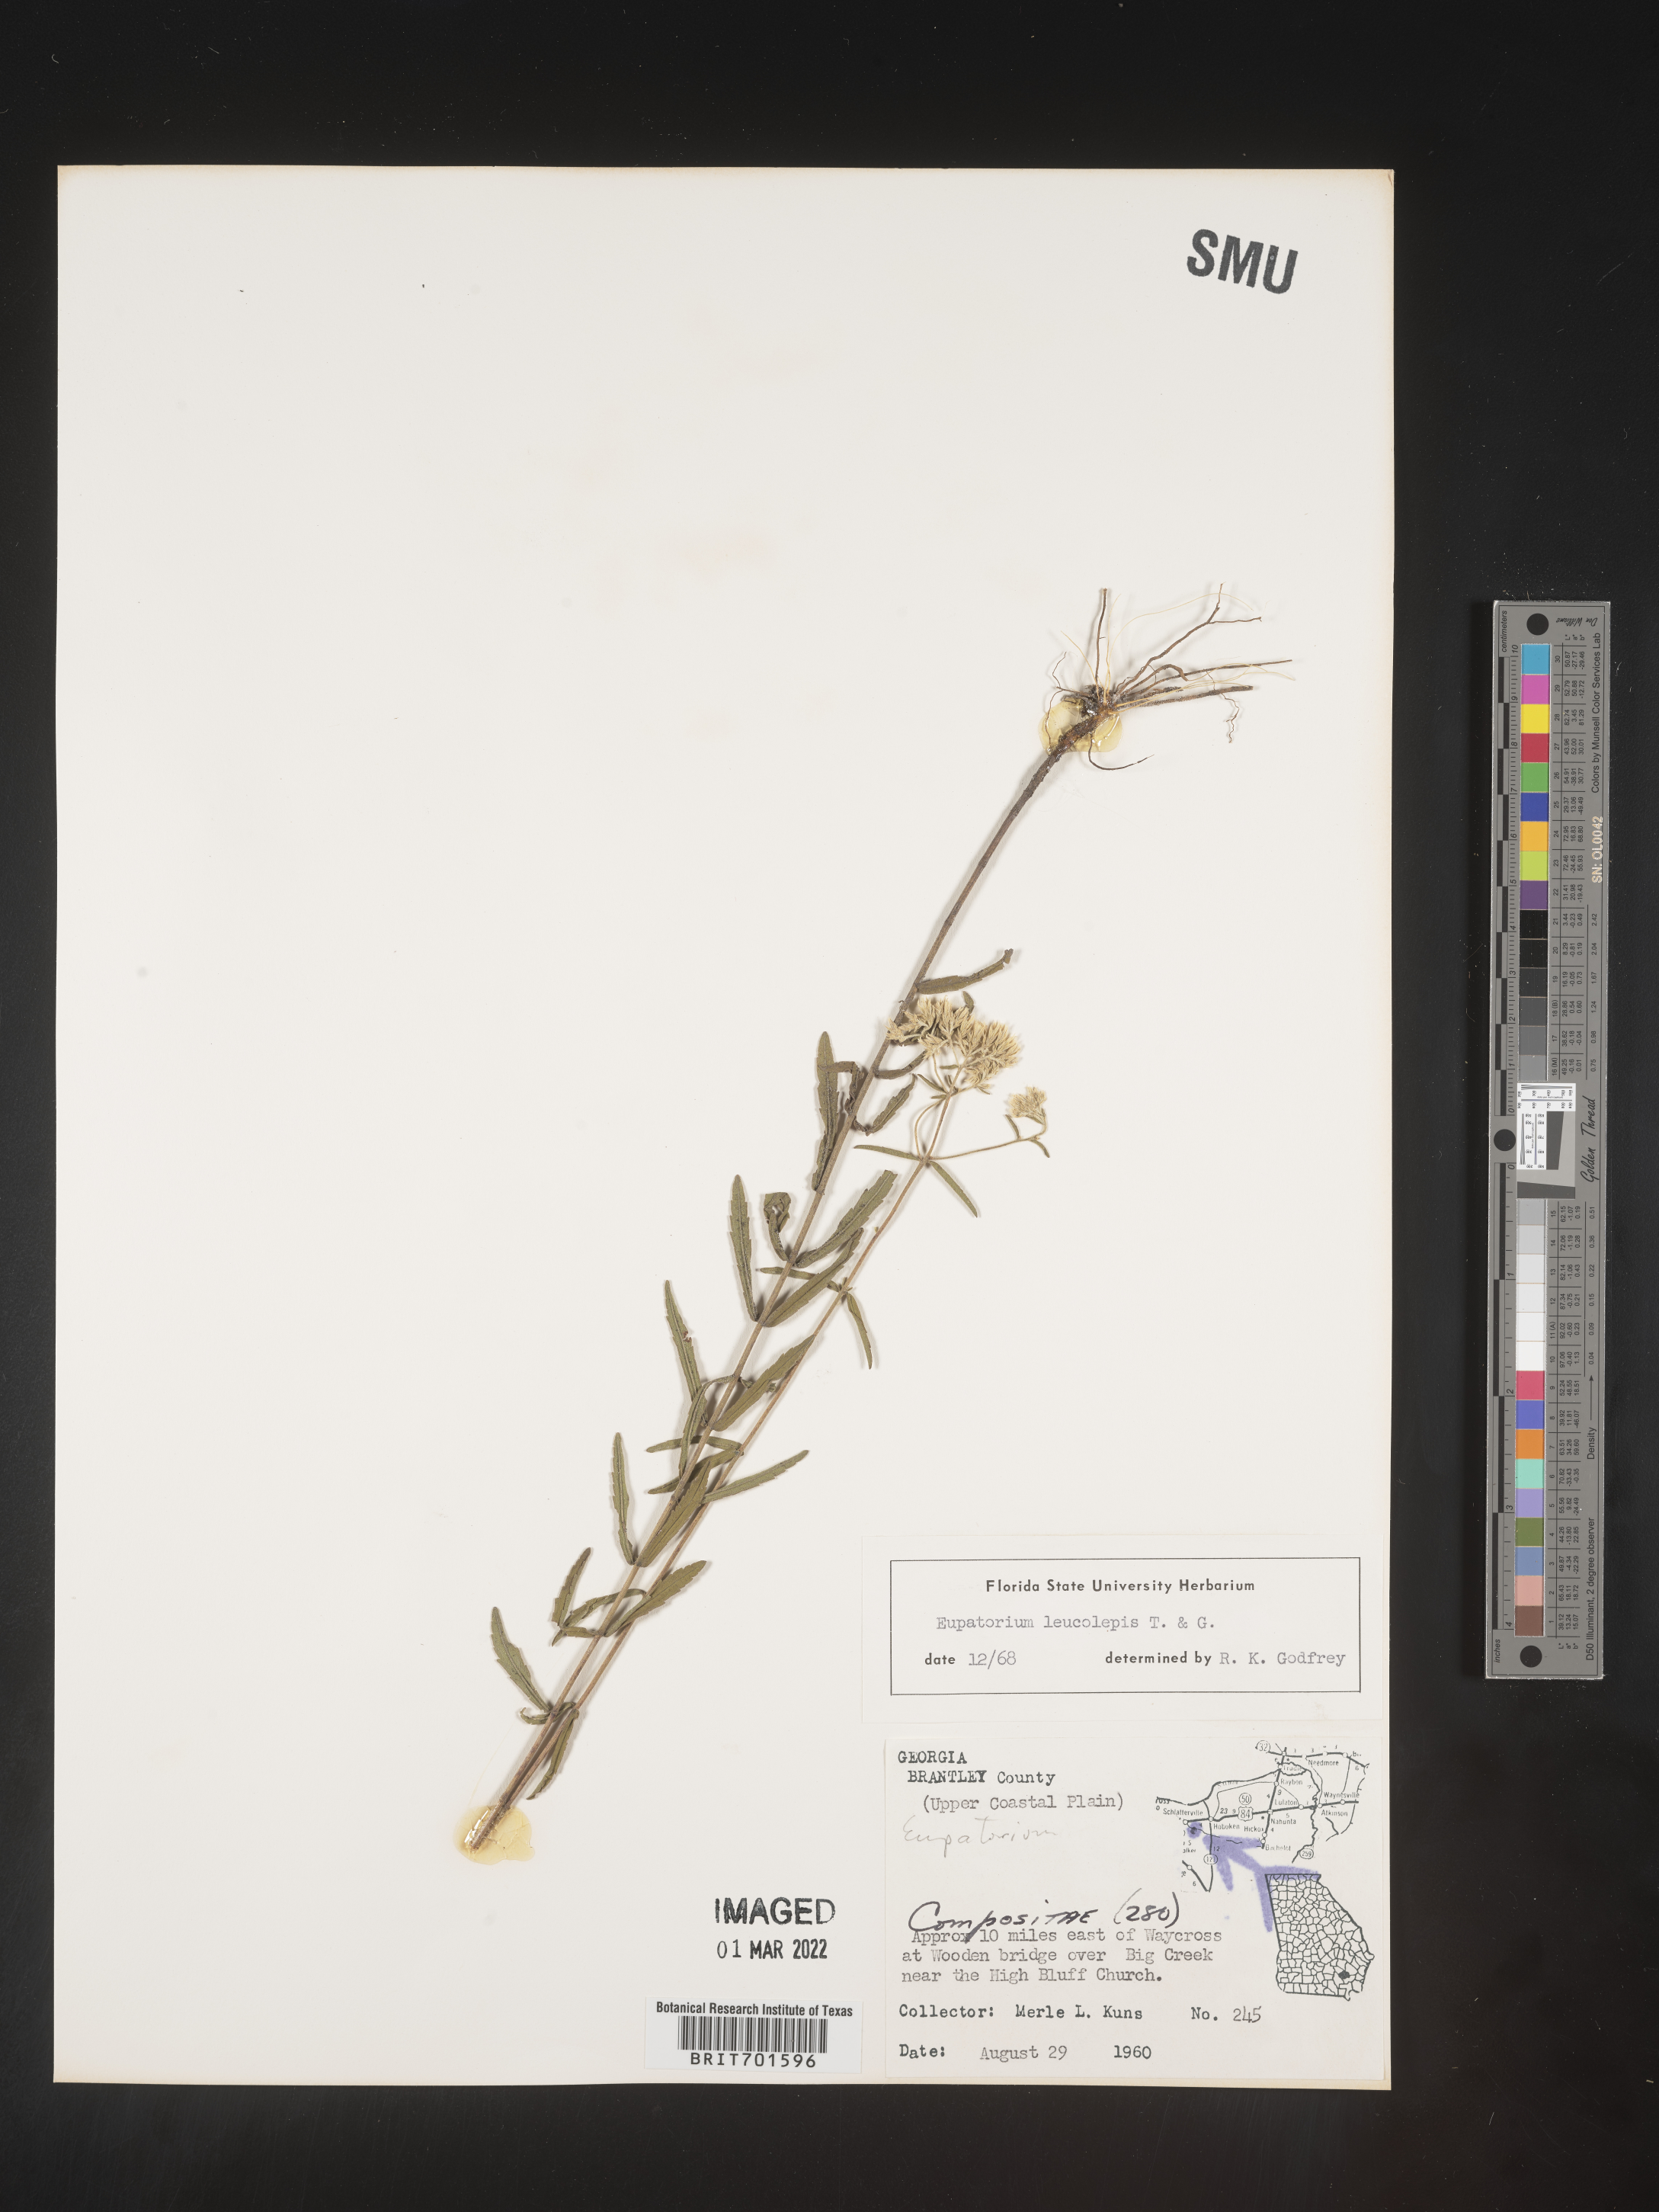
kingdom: Plantae
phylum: Tracheophyta
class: Magnoliopsida
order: Asterales
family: Asteraceae
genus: Eupatorium
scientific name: Eupatorium leucolepis
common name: Justiceweed
